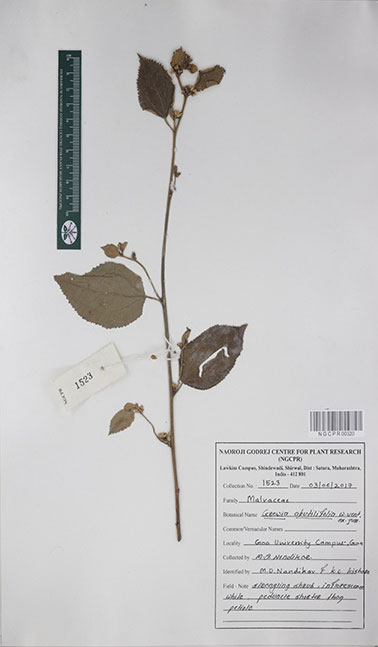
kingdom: Plantae
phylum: Tracheophyta
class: Magnoliopsida
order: Malvales
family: Malvaceae
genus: Grewia
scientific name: Grewia abutilifolia
